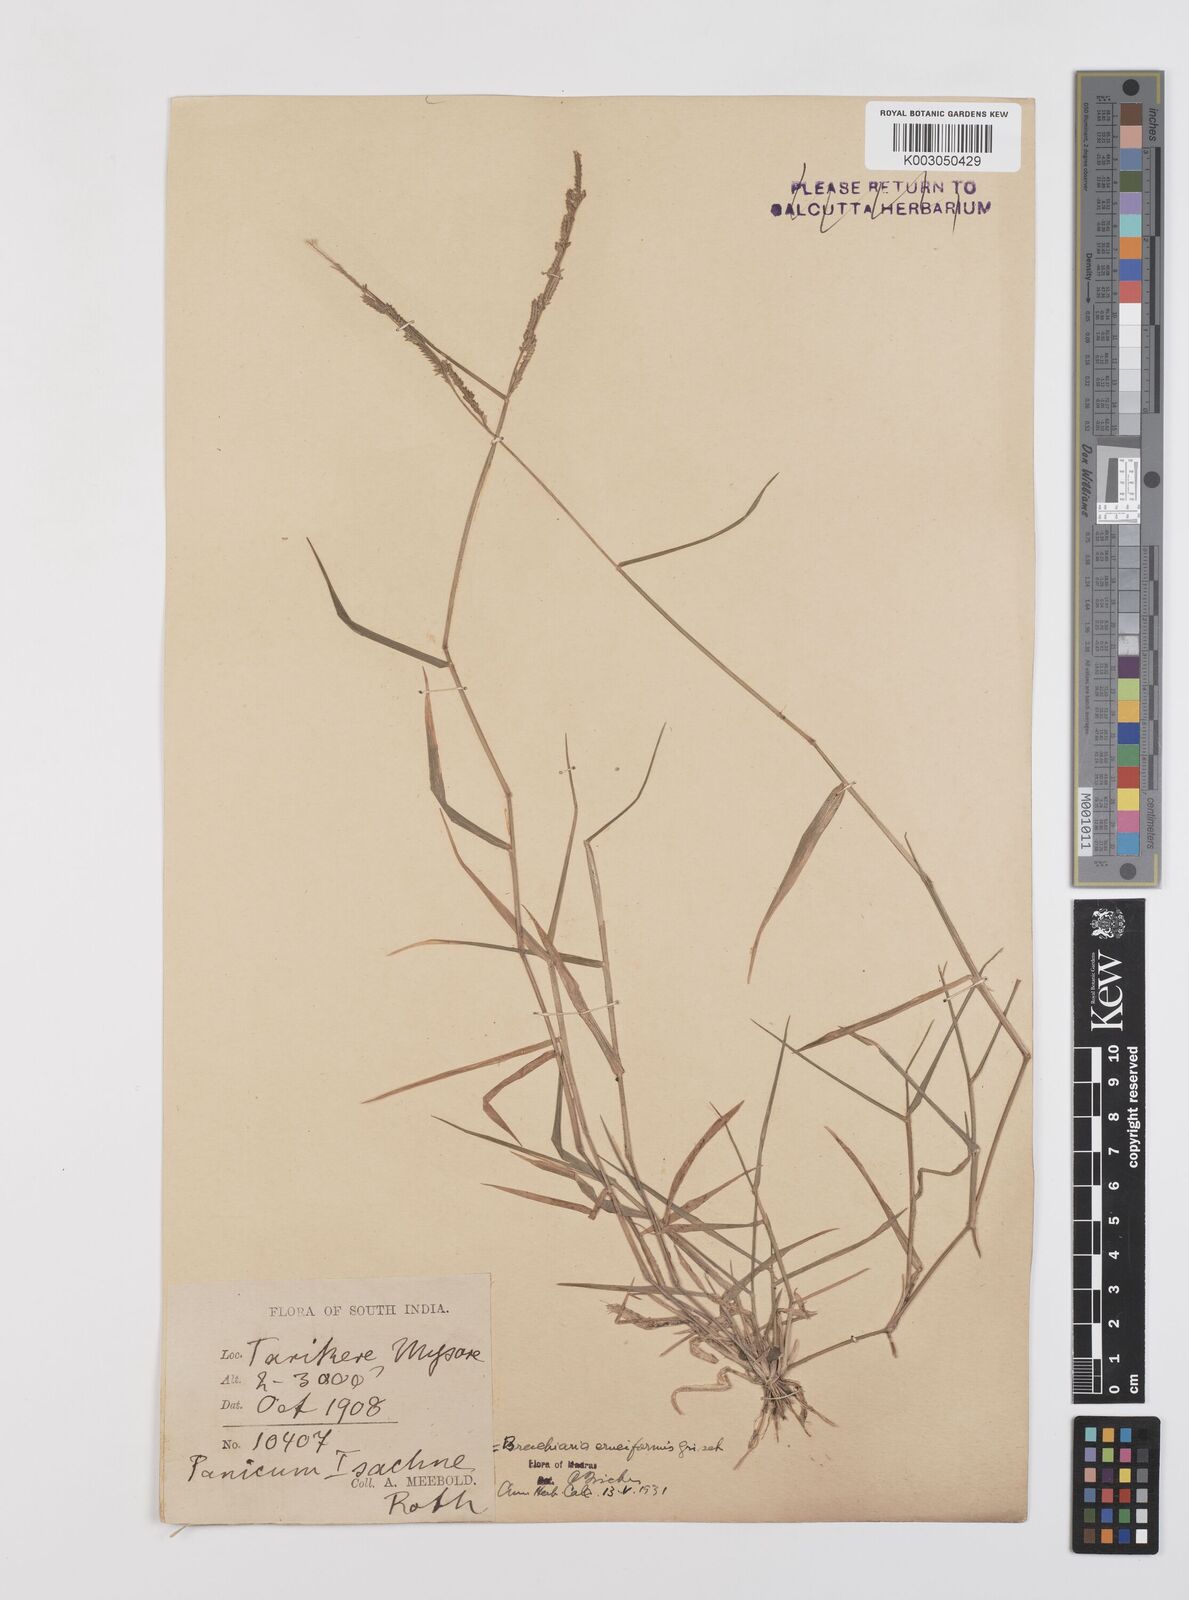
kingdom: Plantae
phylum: Tracheophyta
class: Liliopsida
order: Poales
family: Poaceae
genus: Moorochloa
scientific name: Moorochloa eruciformis
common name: Sweet signalgrass
